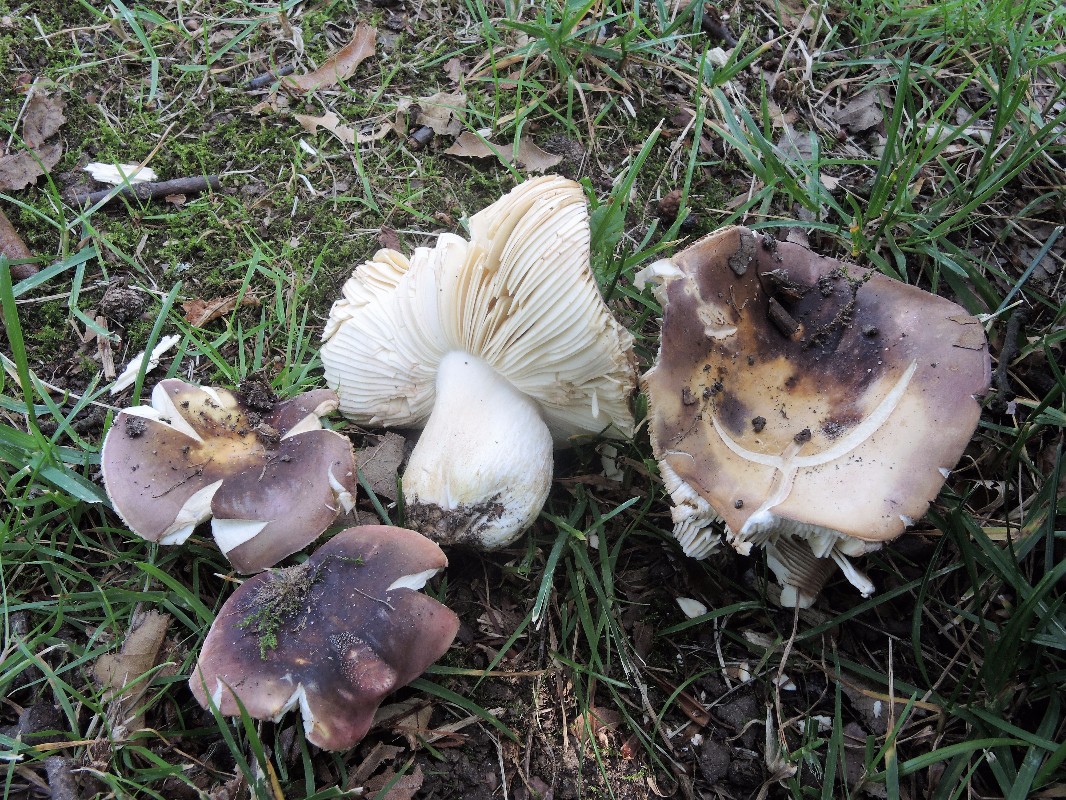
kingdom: Fungi
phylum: Basidiomycota
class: Agaricomycetes
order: Russulales
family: Russulaceae
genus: Russula
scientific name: Russula graveolens
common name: bugtet skørhat
